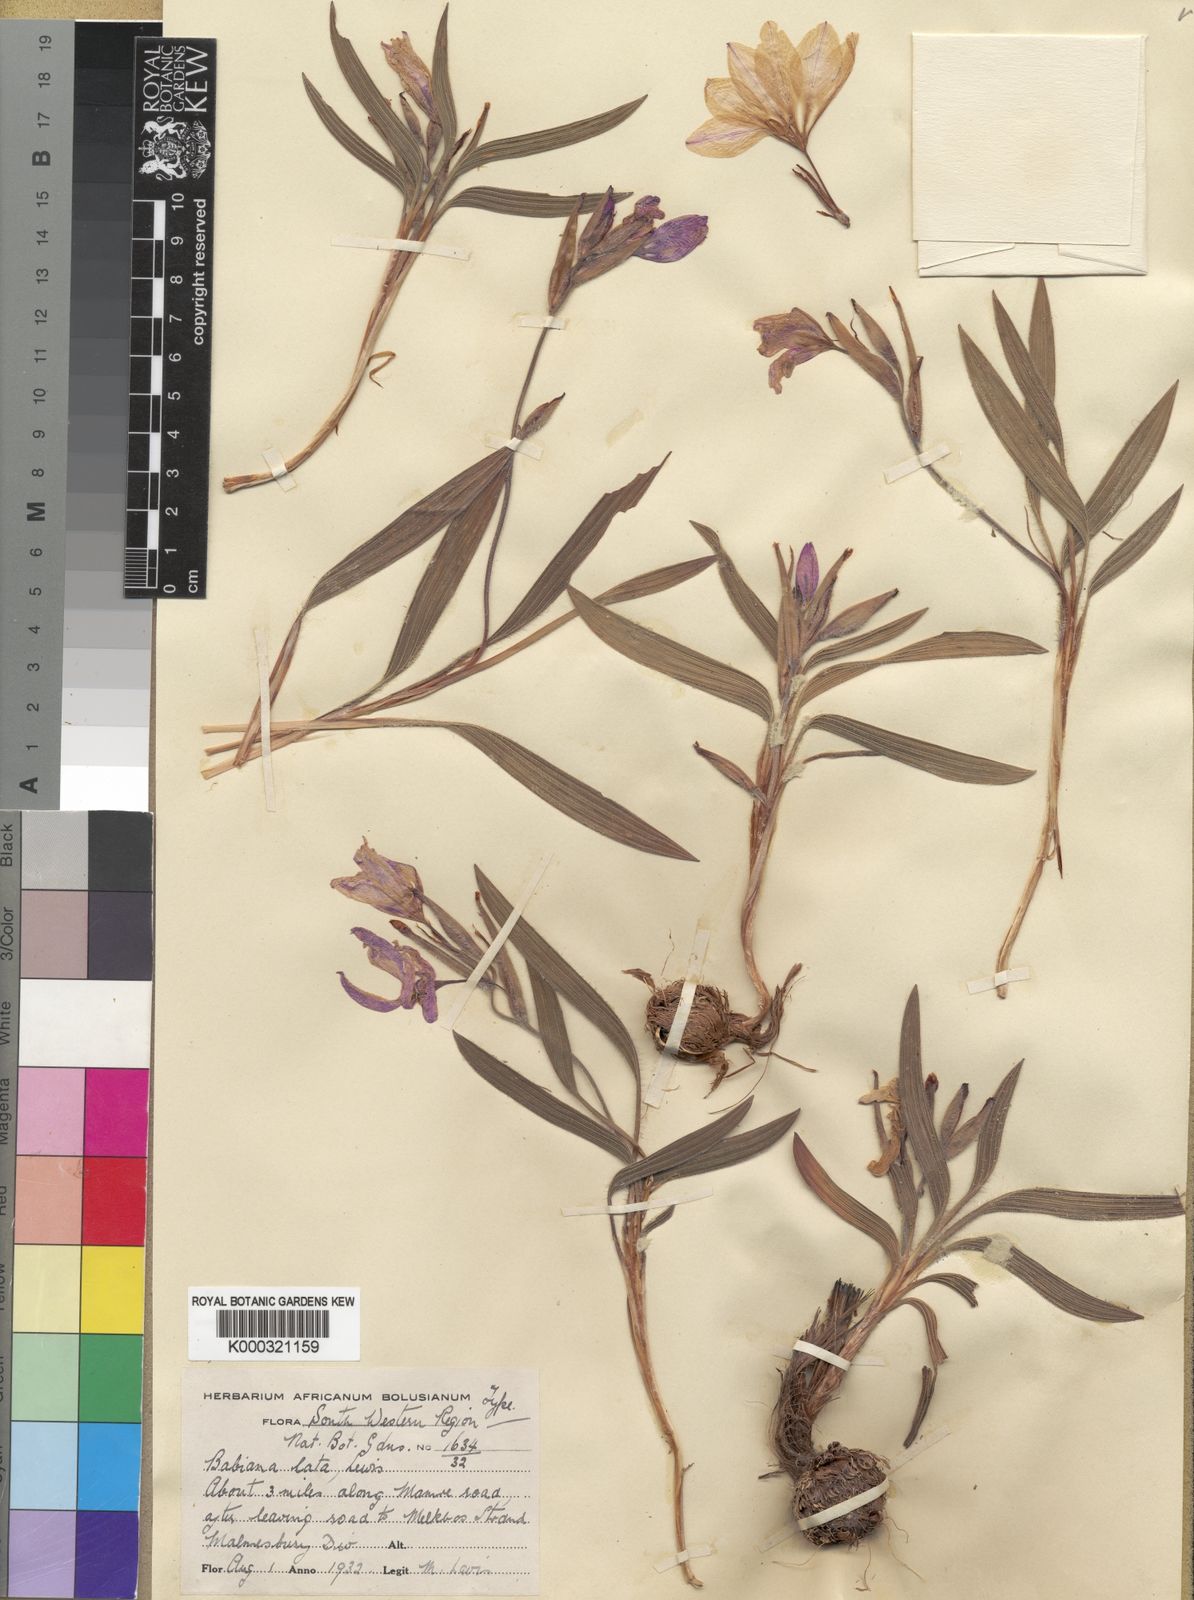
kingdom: Plantae
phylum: Tracheophyta
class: Liliopsida
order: Asparagales
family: Iridaceae
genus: Babiana
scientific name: Babiana blanda
